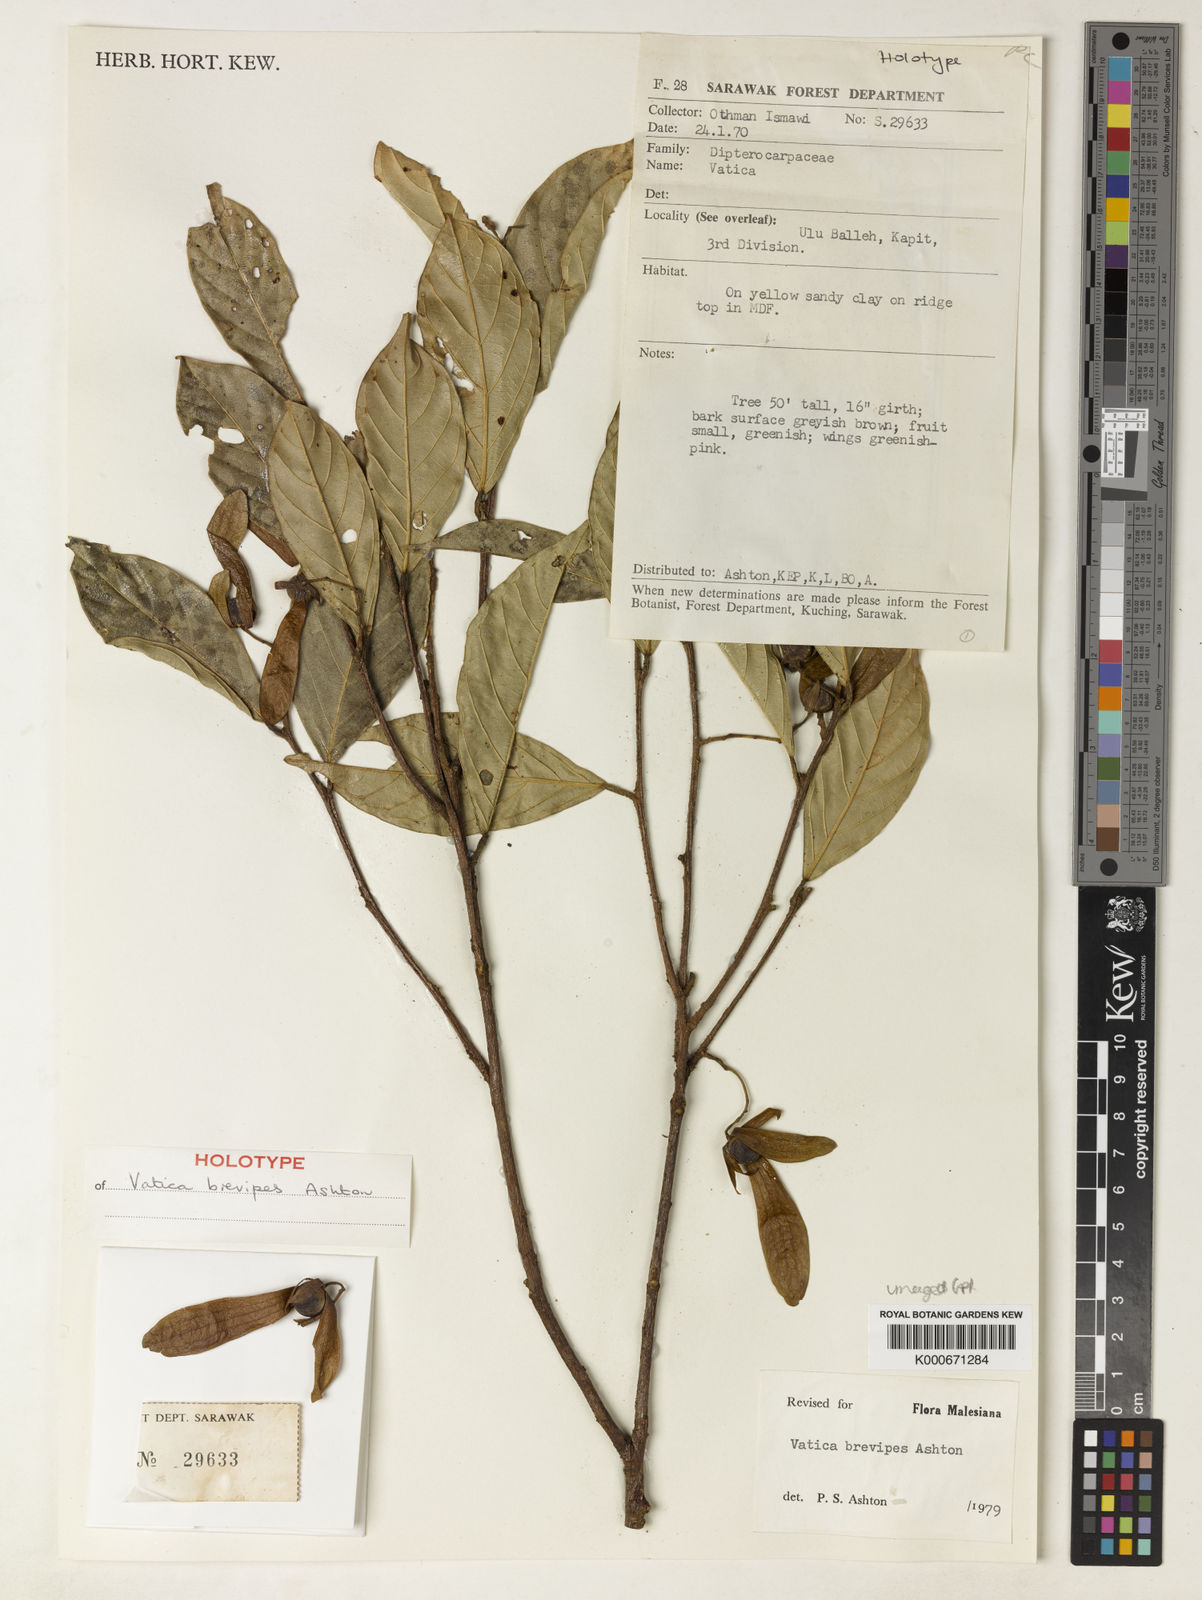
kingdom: Plantae
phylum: Tracheophyta
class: Magnoliopsida
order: Malvales
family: Dipterocarpaceae
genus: Vatica
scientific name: Vatica brevipes
